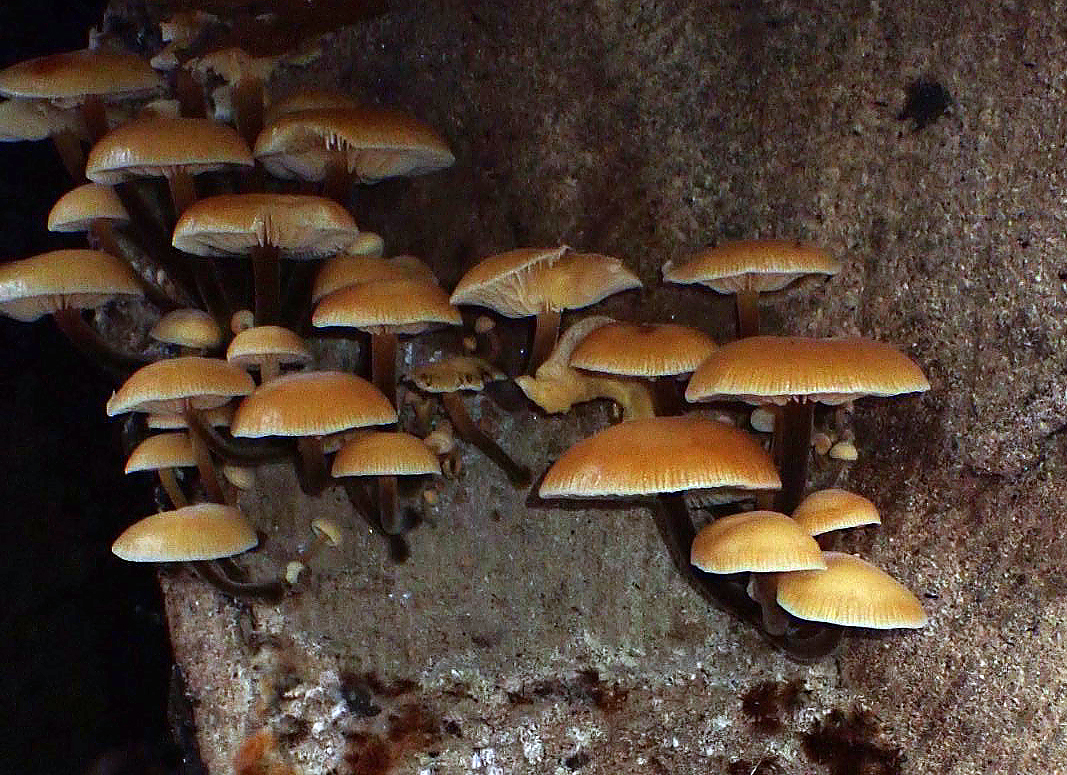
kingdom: Fungi
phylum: Basidiomycota
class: Agaricomycetes
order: Agaricales
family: Physalacriaceae
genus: Flammulina
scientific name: Flammulina velutipes
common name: gul fløjlsfod
